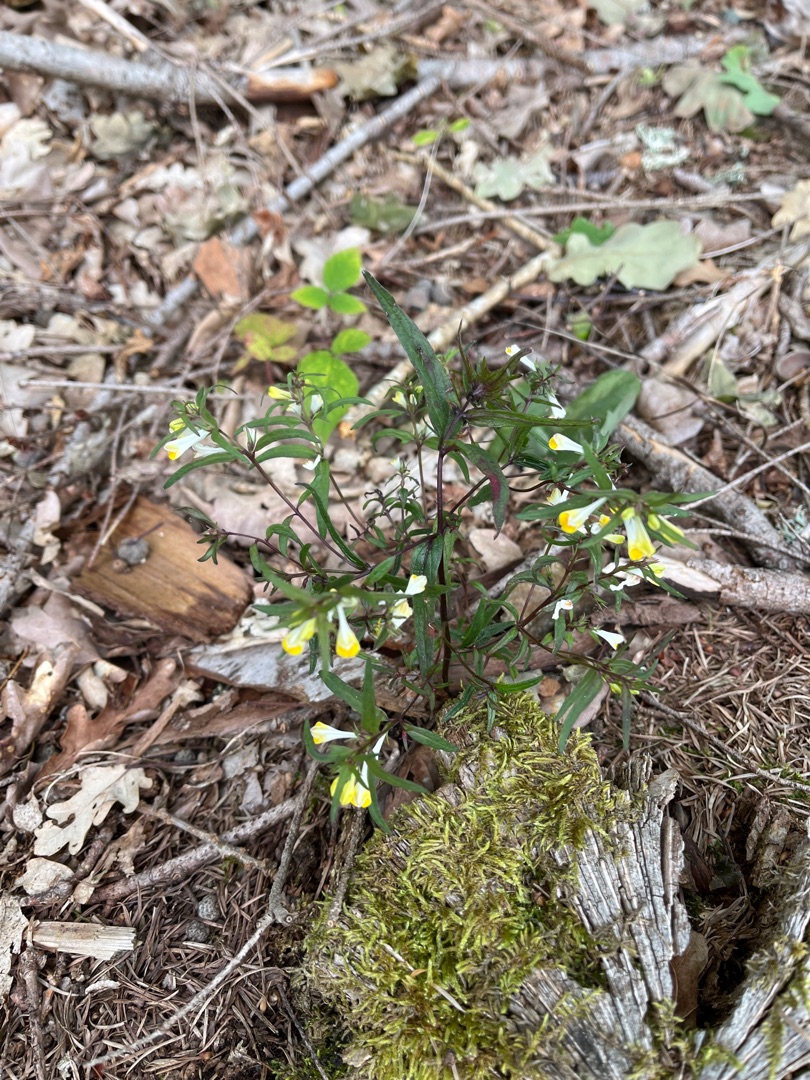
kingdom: Plantae
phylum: Tracheophyta
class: Magnoliopsida
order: Lamiales
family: Orobanchaceae
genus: Melampyrum
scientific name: Melampyrum pratense
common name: Almindelig kohvede
